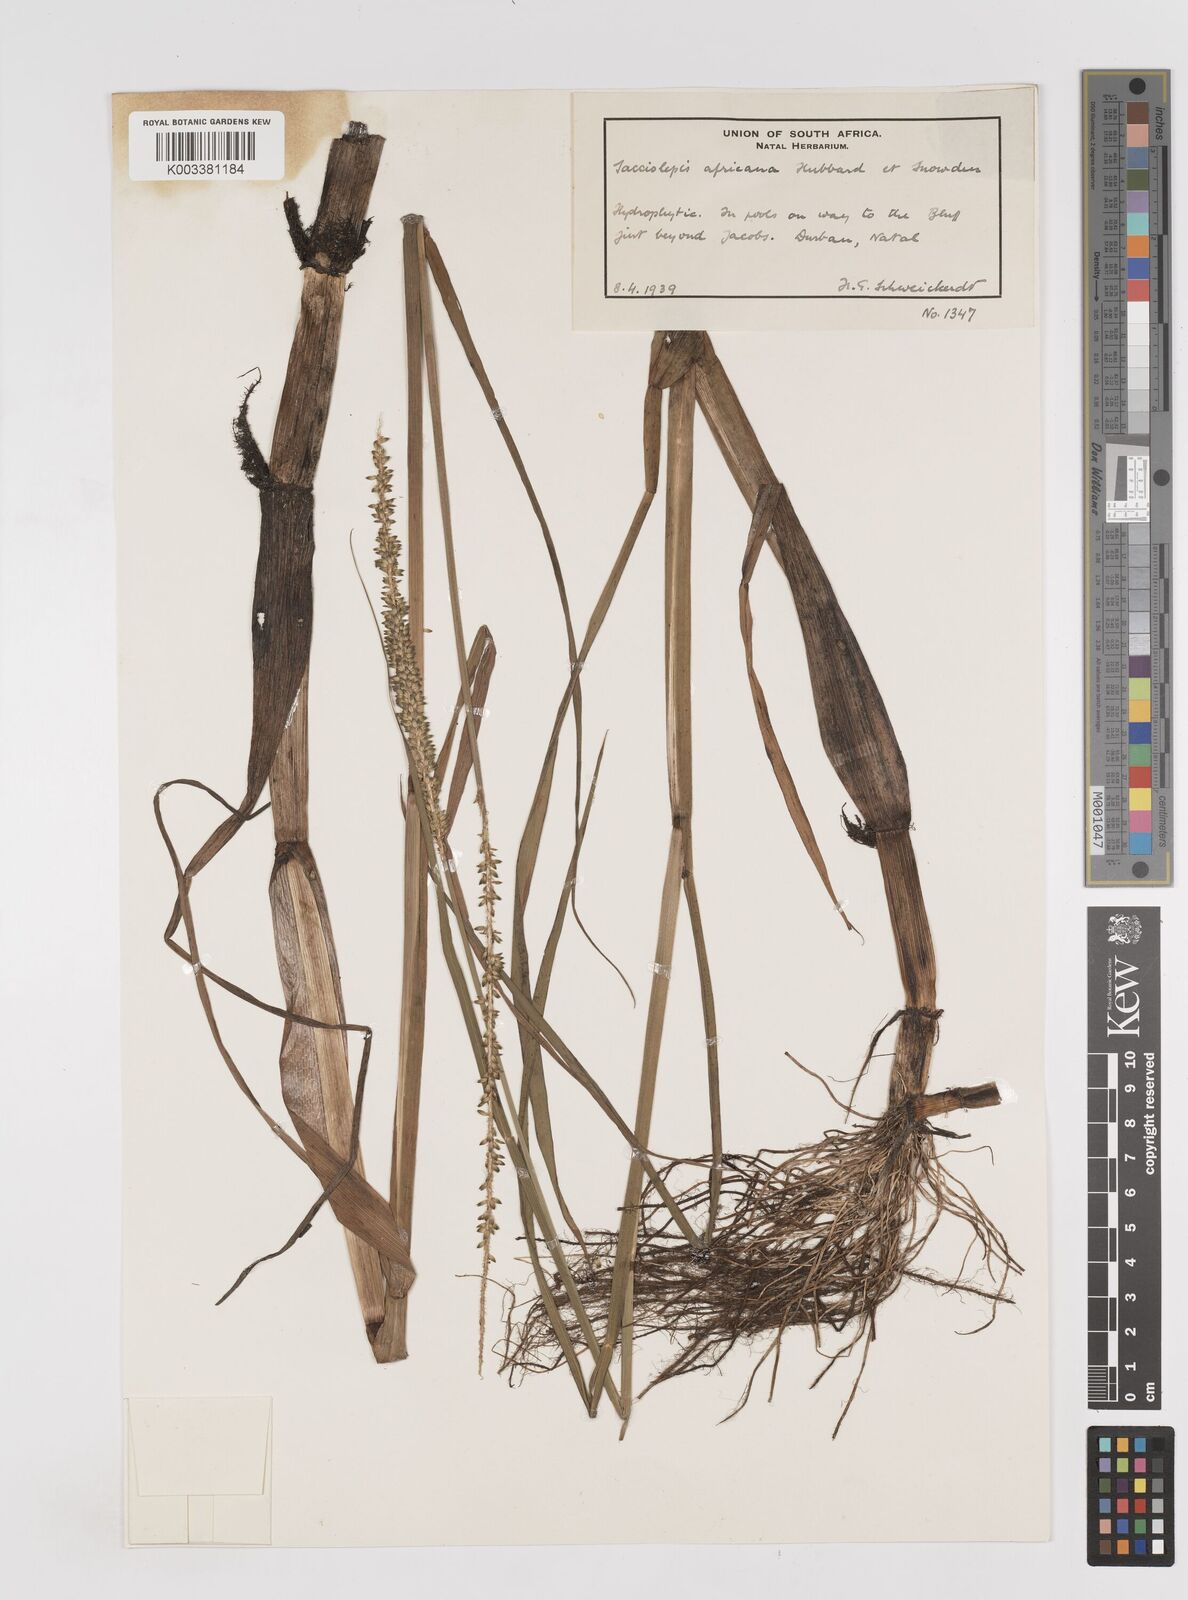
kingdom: Plantae
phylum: Tracheophyta
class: Liliopsida
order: Poales
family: Poaceae
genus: Sacciolepis
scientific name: Sacciolepis africana
